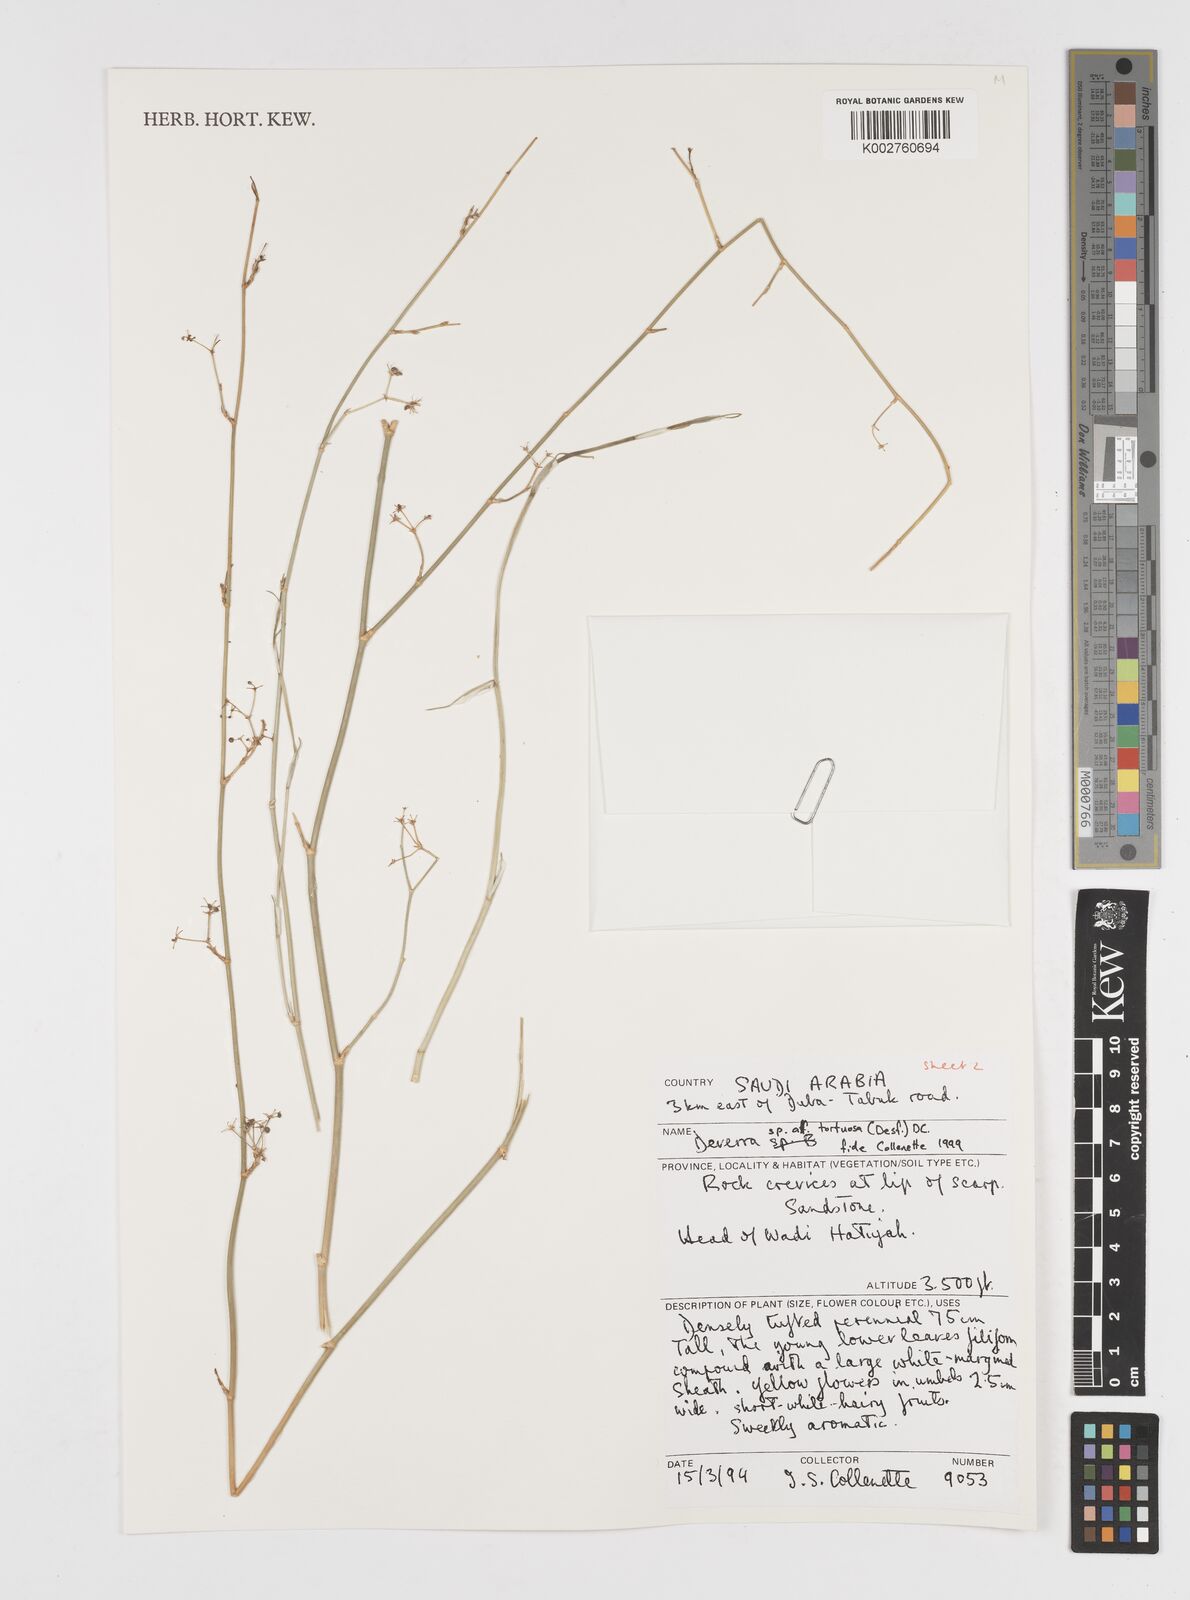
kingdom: Plantae
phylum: Tracheophyta
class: Magnoliopsida
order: Apiales
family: Apiaceae
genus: Deverra
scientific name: Deverra tortuosa
